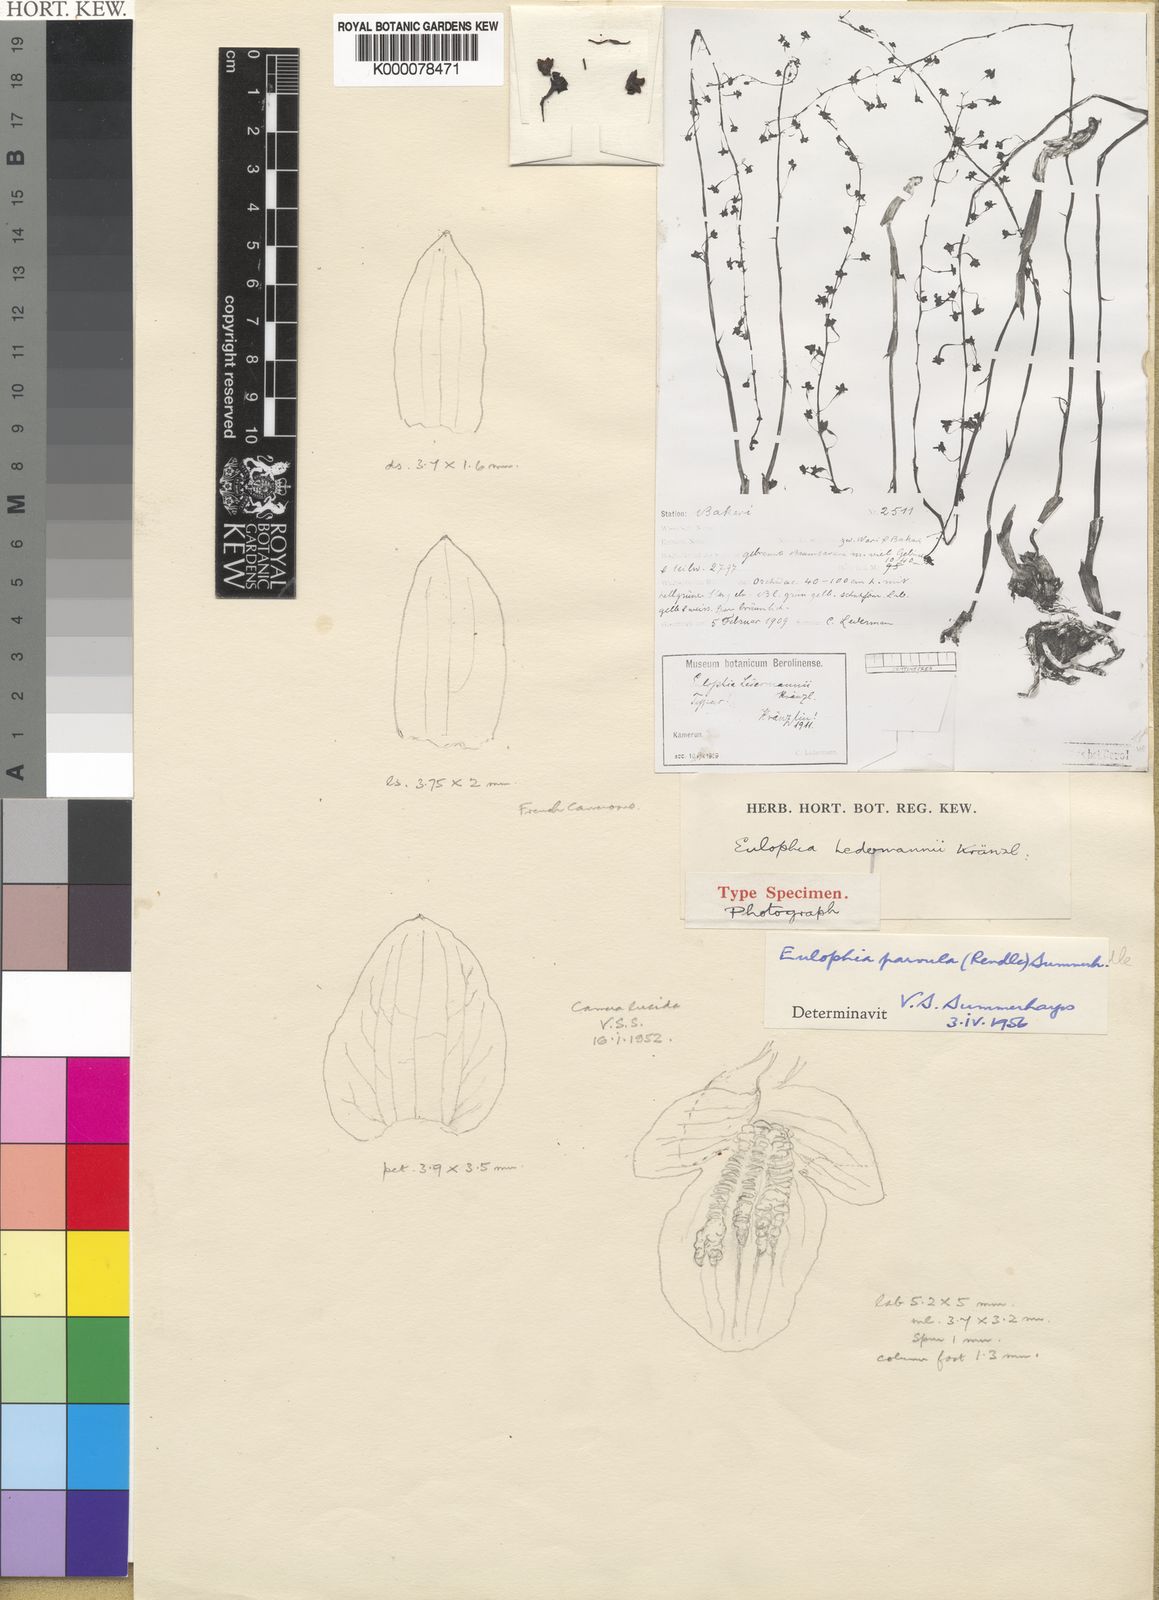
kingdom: Plantae
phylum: Tracheophyta
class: Liliopsida
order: Asparagales
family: Orchidaceae
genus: Eulophia
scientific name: Eulophia parvula
